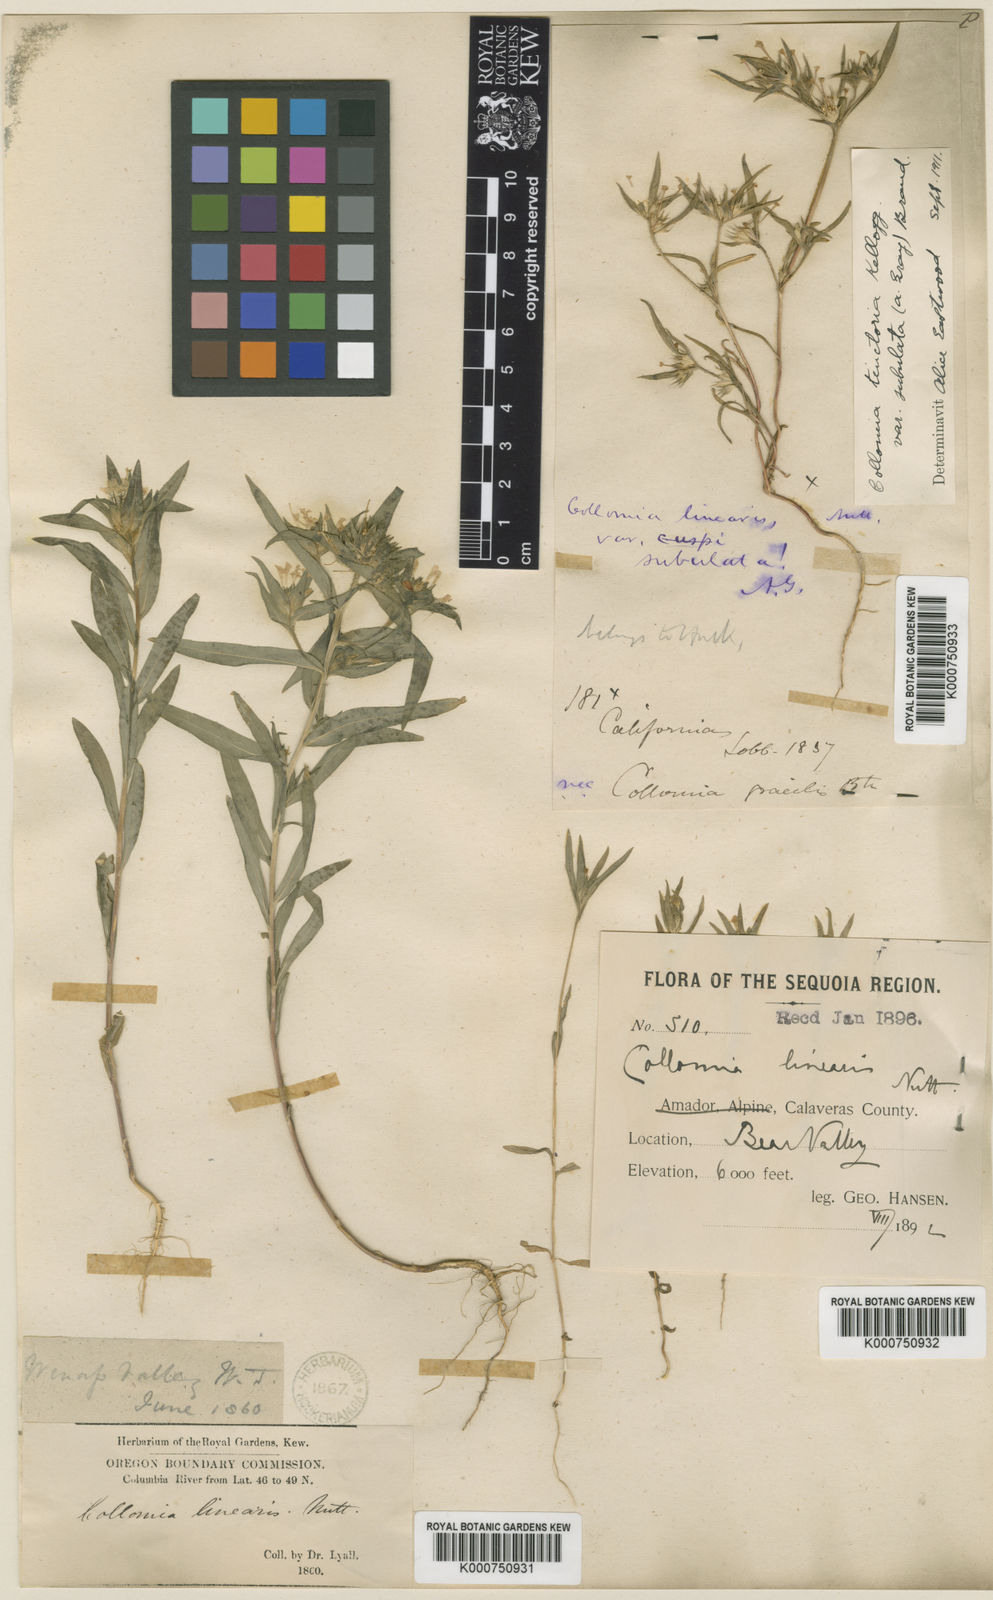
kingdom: Plantae
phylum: Tracheophyta
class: Magnoliopsida
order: Ericales
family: Polemoniaceae
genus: Collomia
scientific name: Collomia linearis
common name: Tiny trumpet
